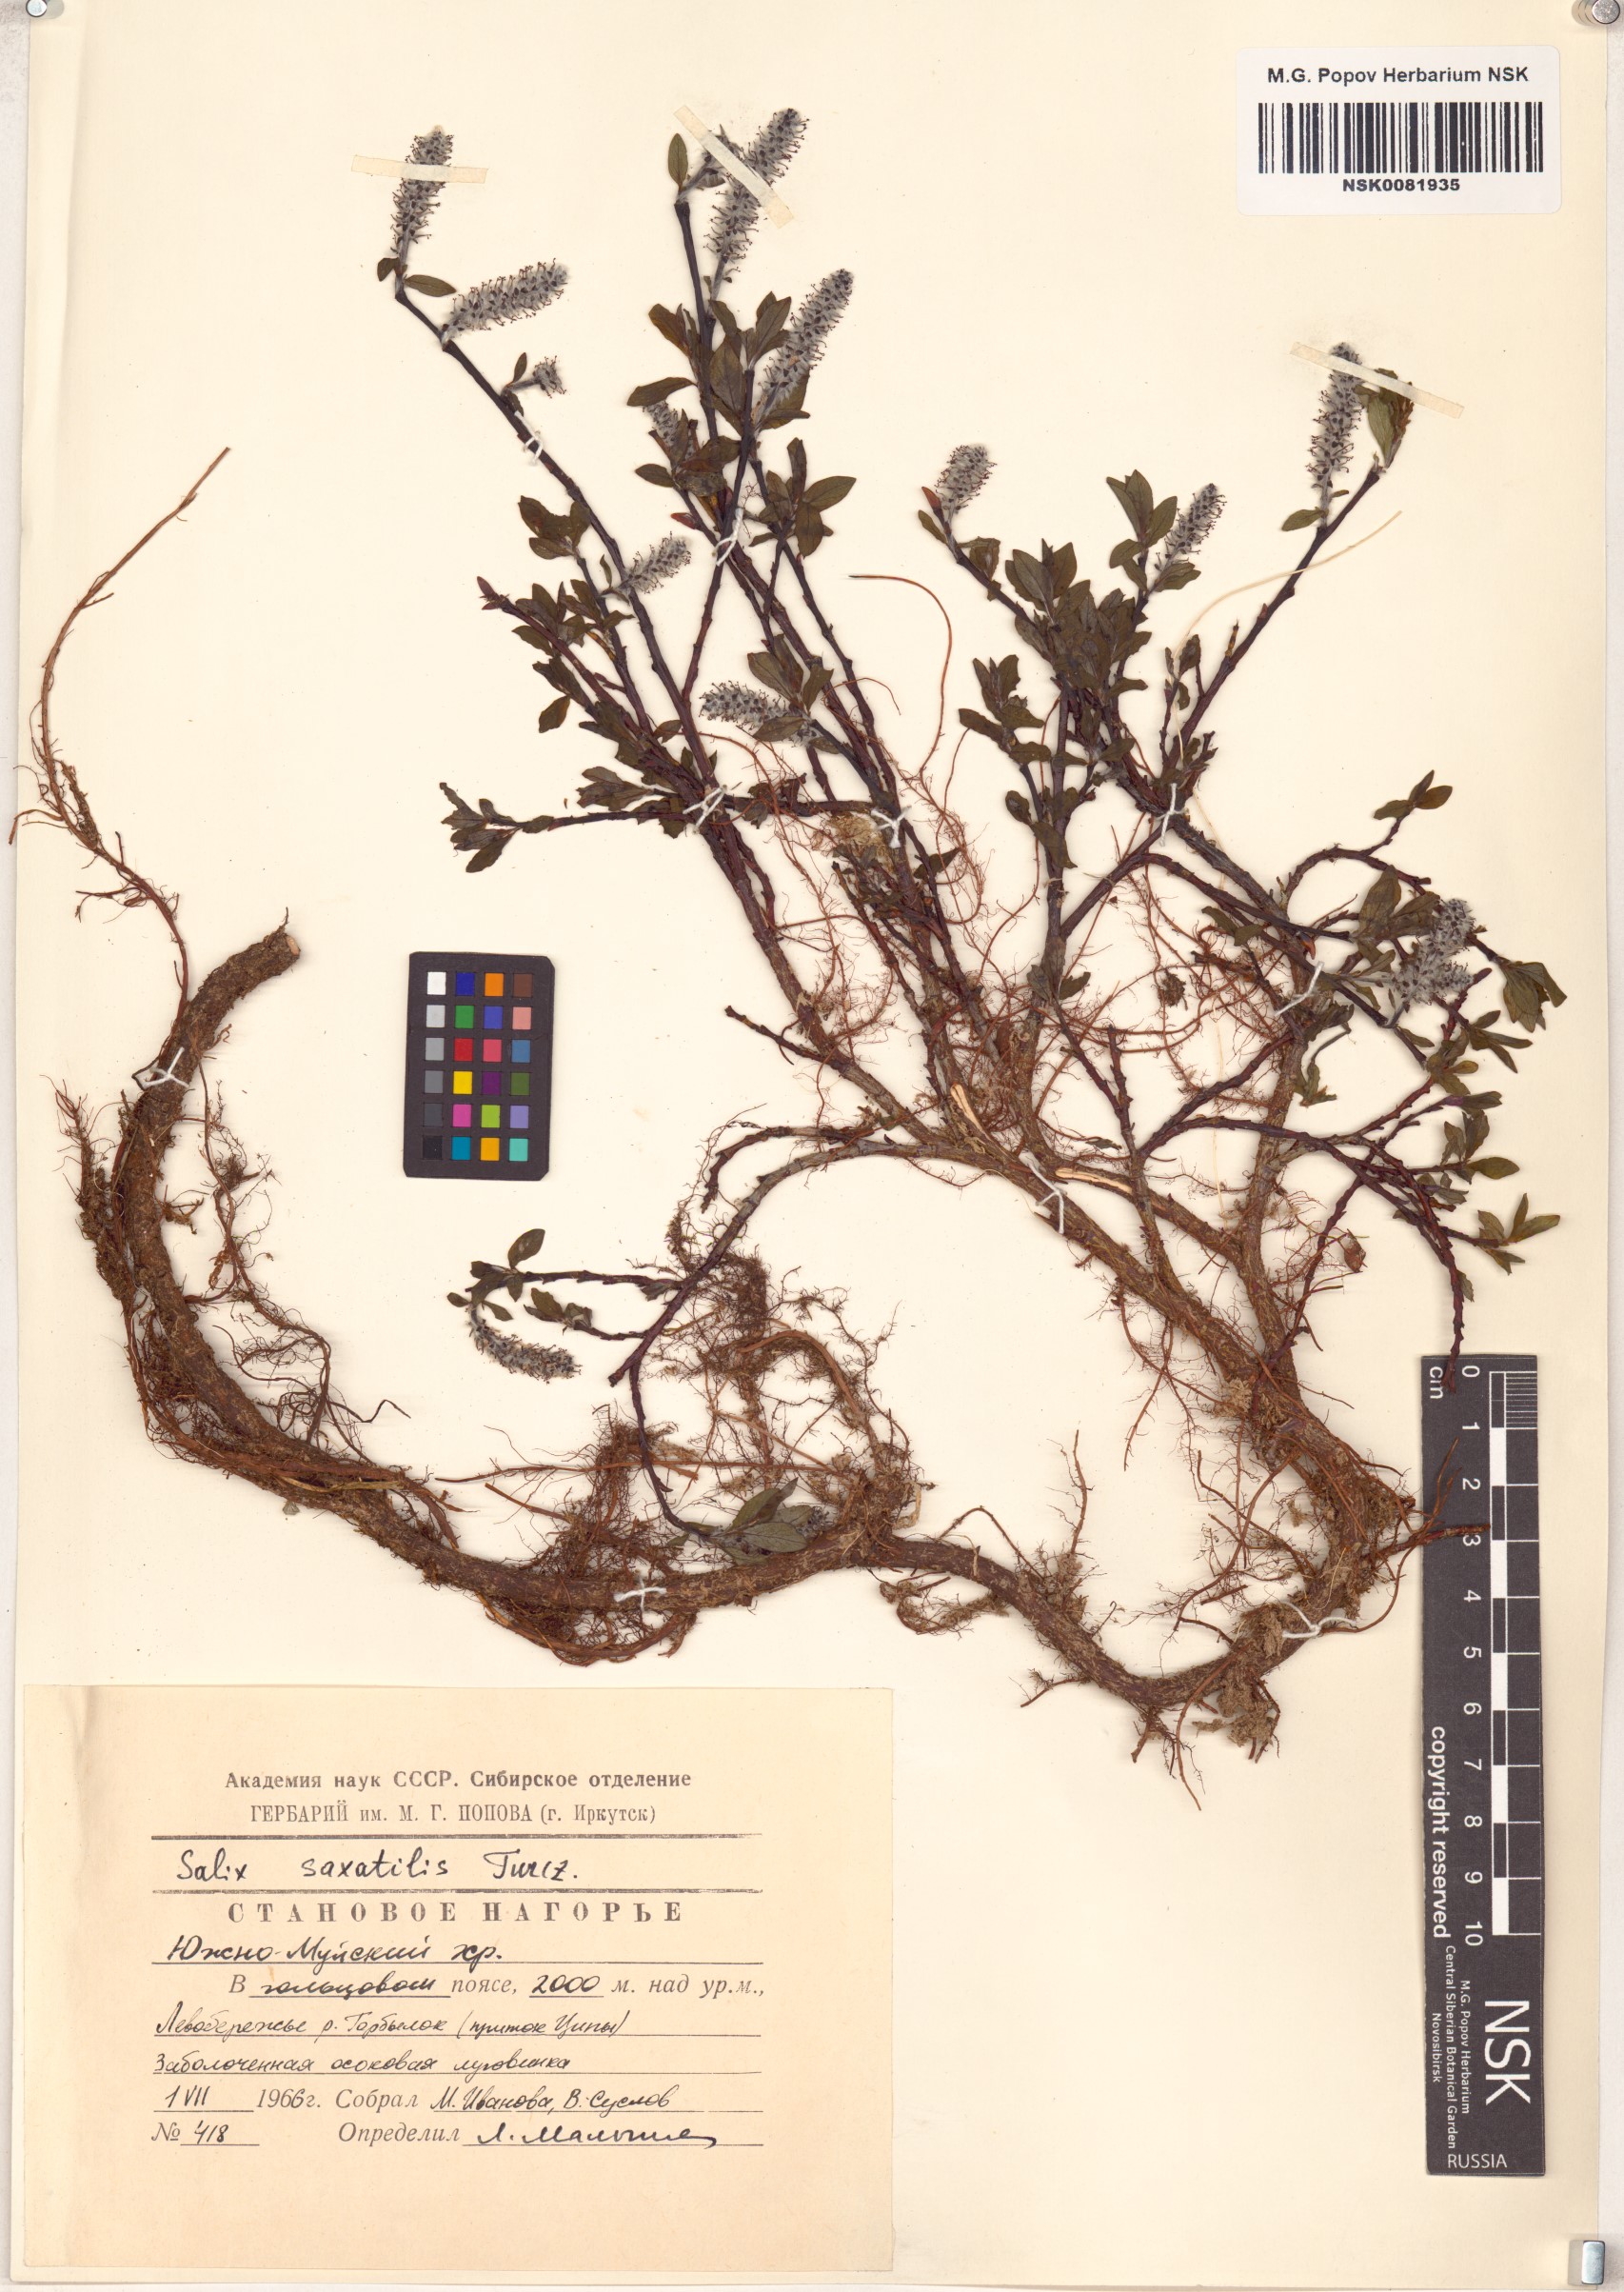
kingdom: Plantae
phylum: Tracheophyta
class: Magnoliopsida
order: Malpighiales
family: Salicaceae
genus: Salix
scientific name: Salix saxatilis
